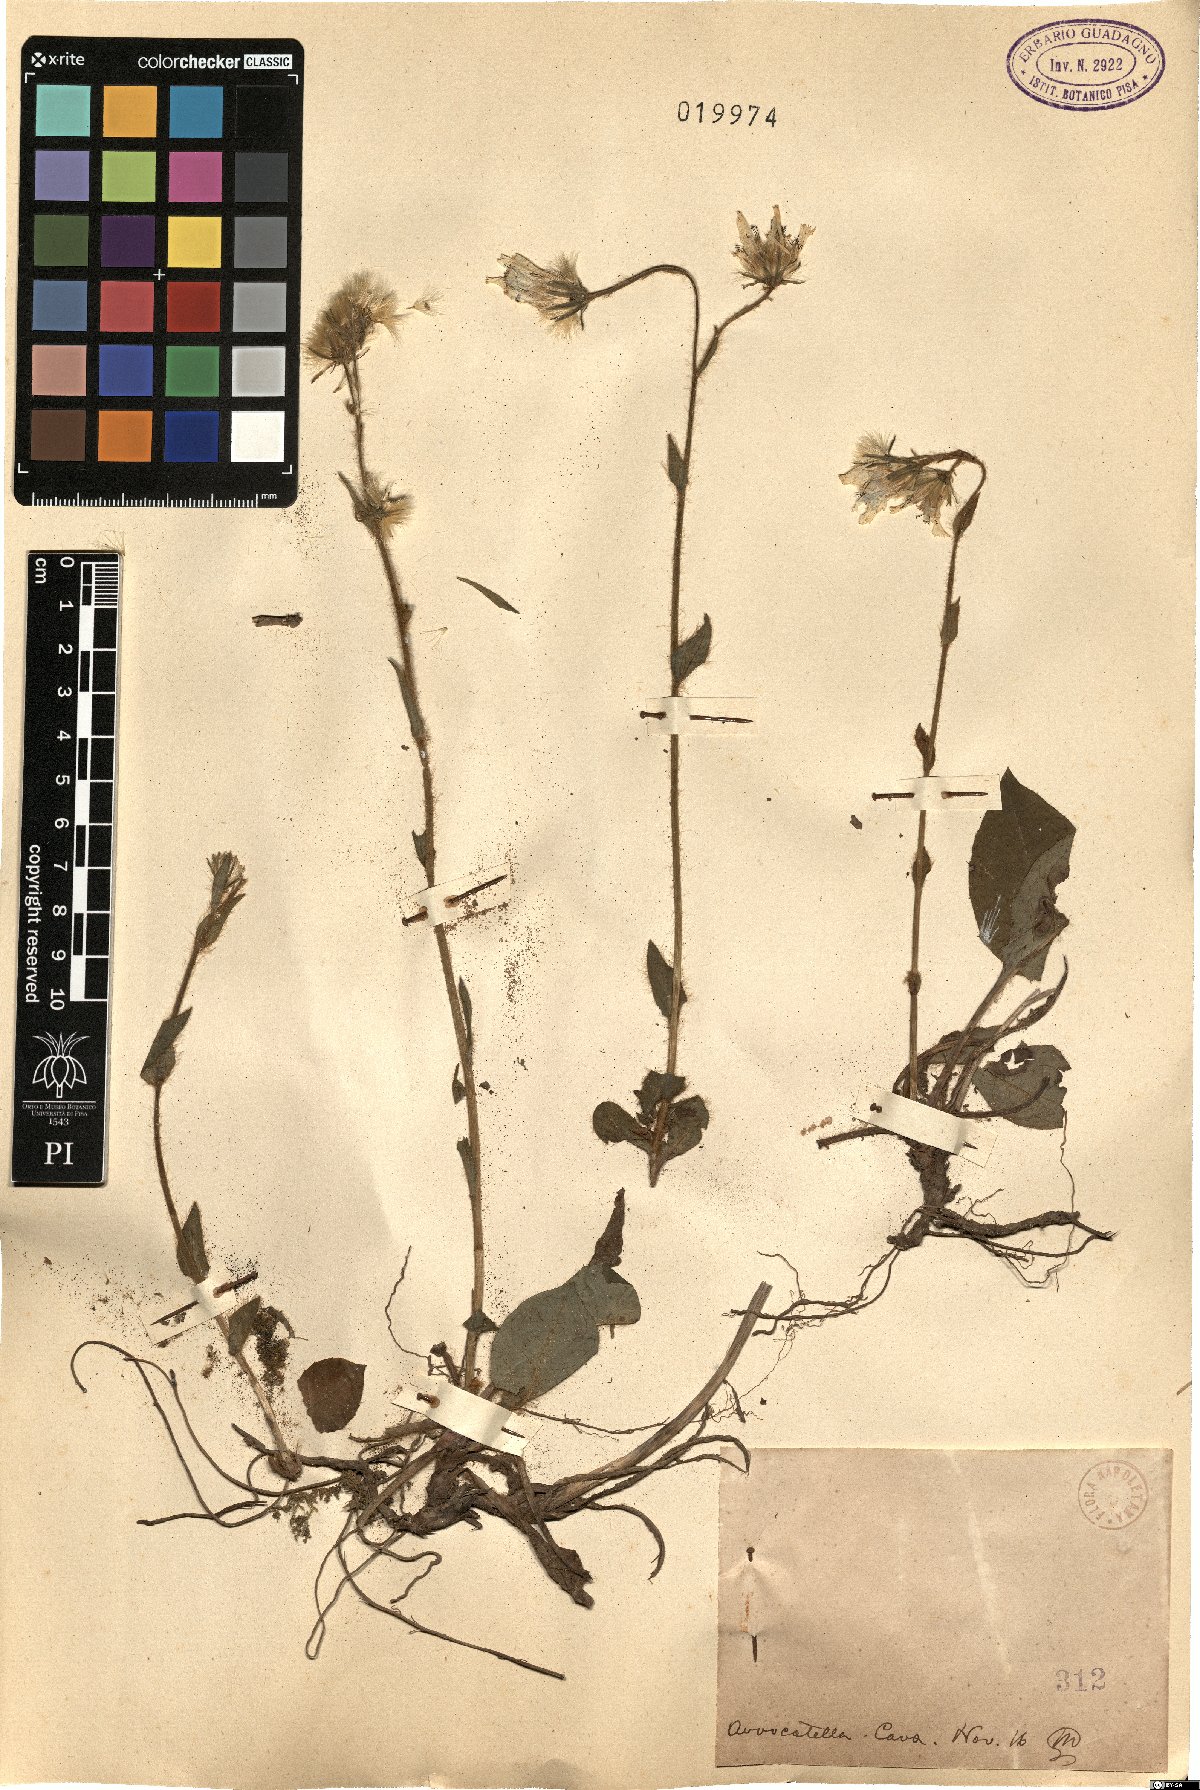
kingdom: Plantae
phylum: Tracheophyta
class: Magnoliopsida
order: Asterales
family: Asteraceae
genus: Hieracium
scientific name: Hieracium
